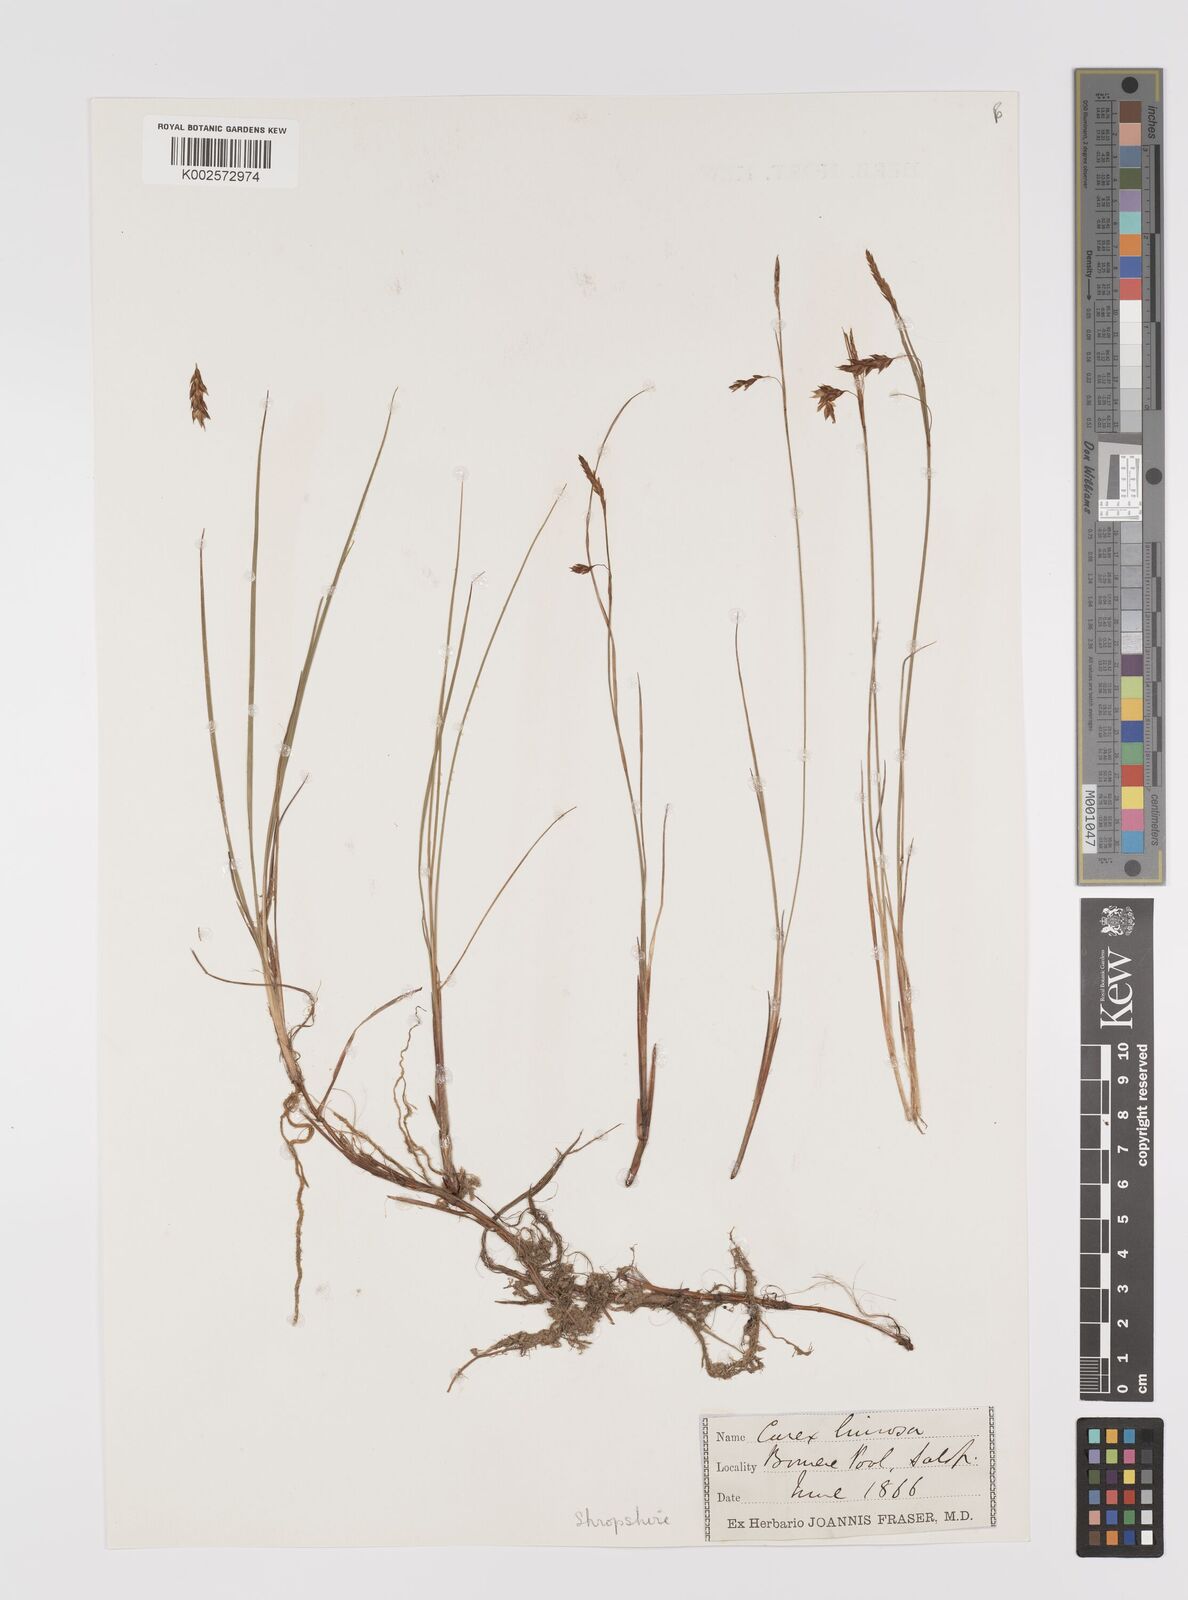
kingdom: Plantae
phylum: Tracheophyta
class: Liliopsida
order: Poales
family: Cyperaceae
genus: Carex
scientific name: Carex limosa
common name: Bog sedge
